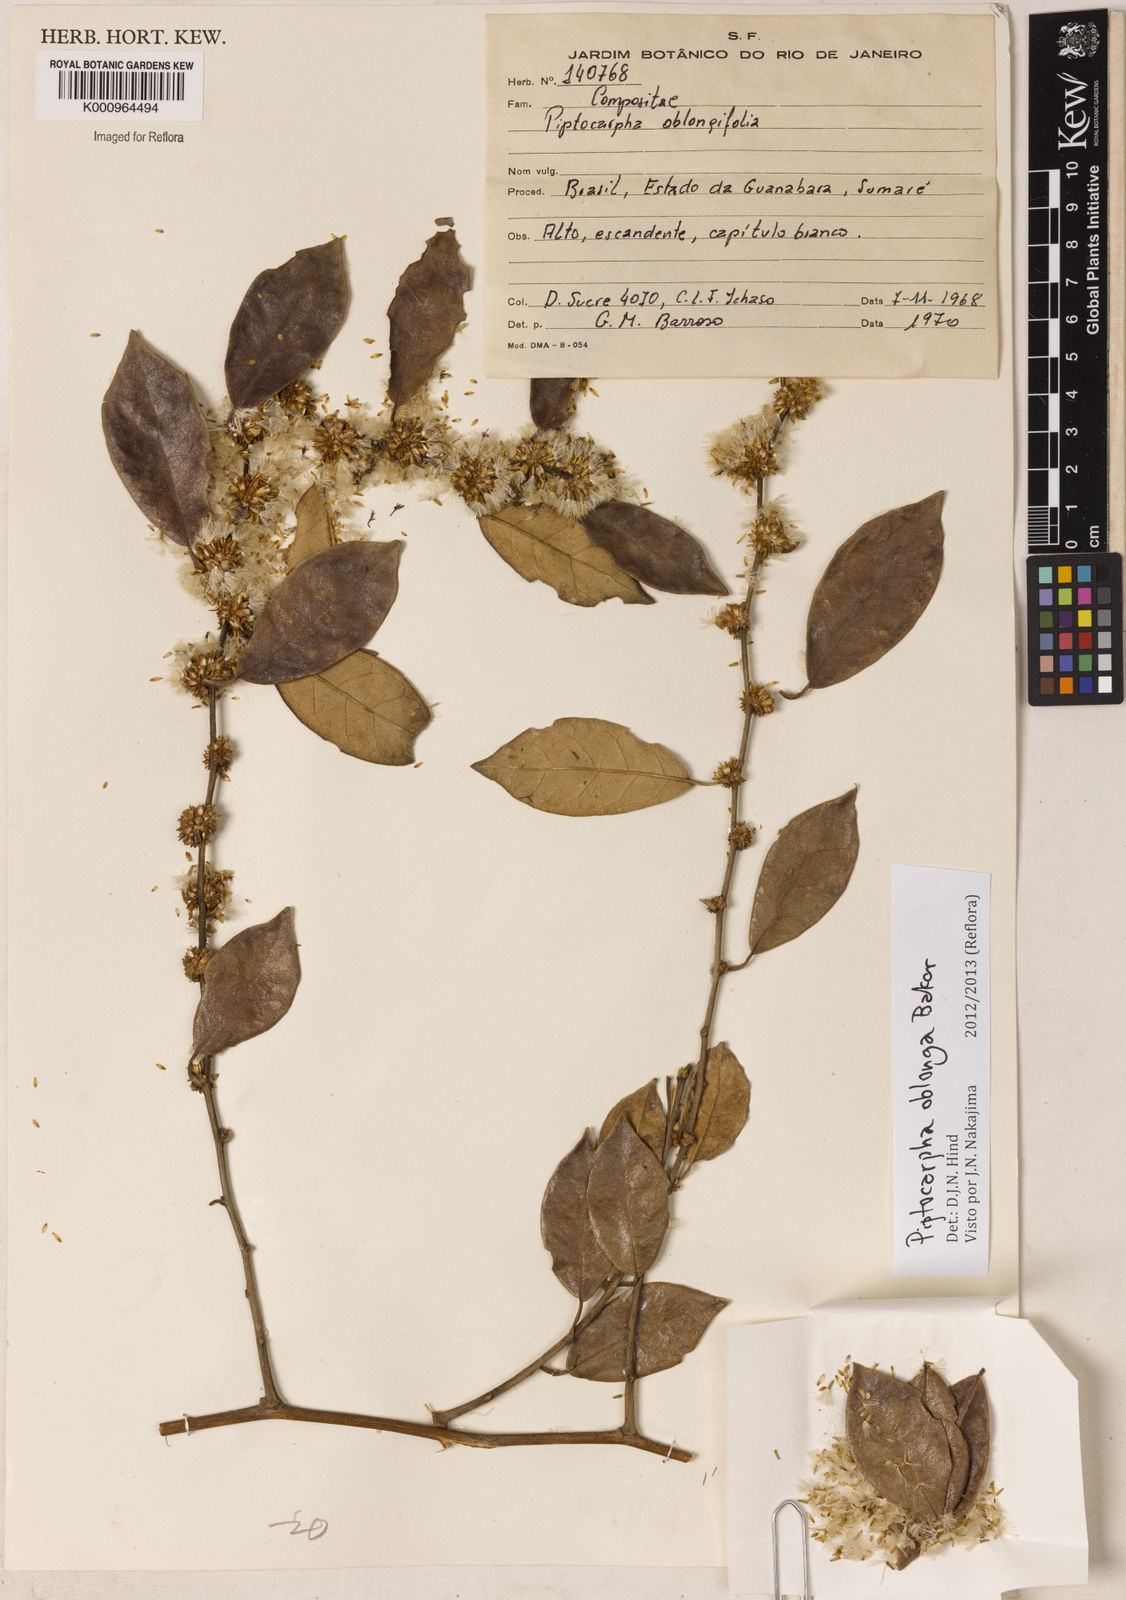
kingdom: Plantae
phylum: Tracheophyta
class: Magnoliopsida
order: Asterales
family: Asteraceae
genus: Piptocarpha
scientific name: Piptocarpha oblonga
